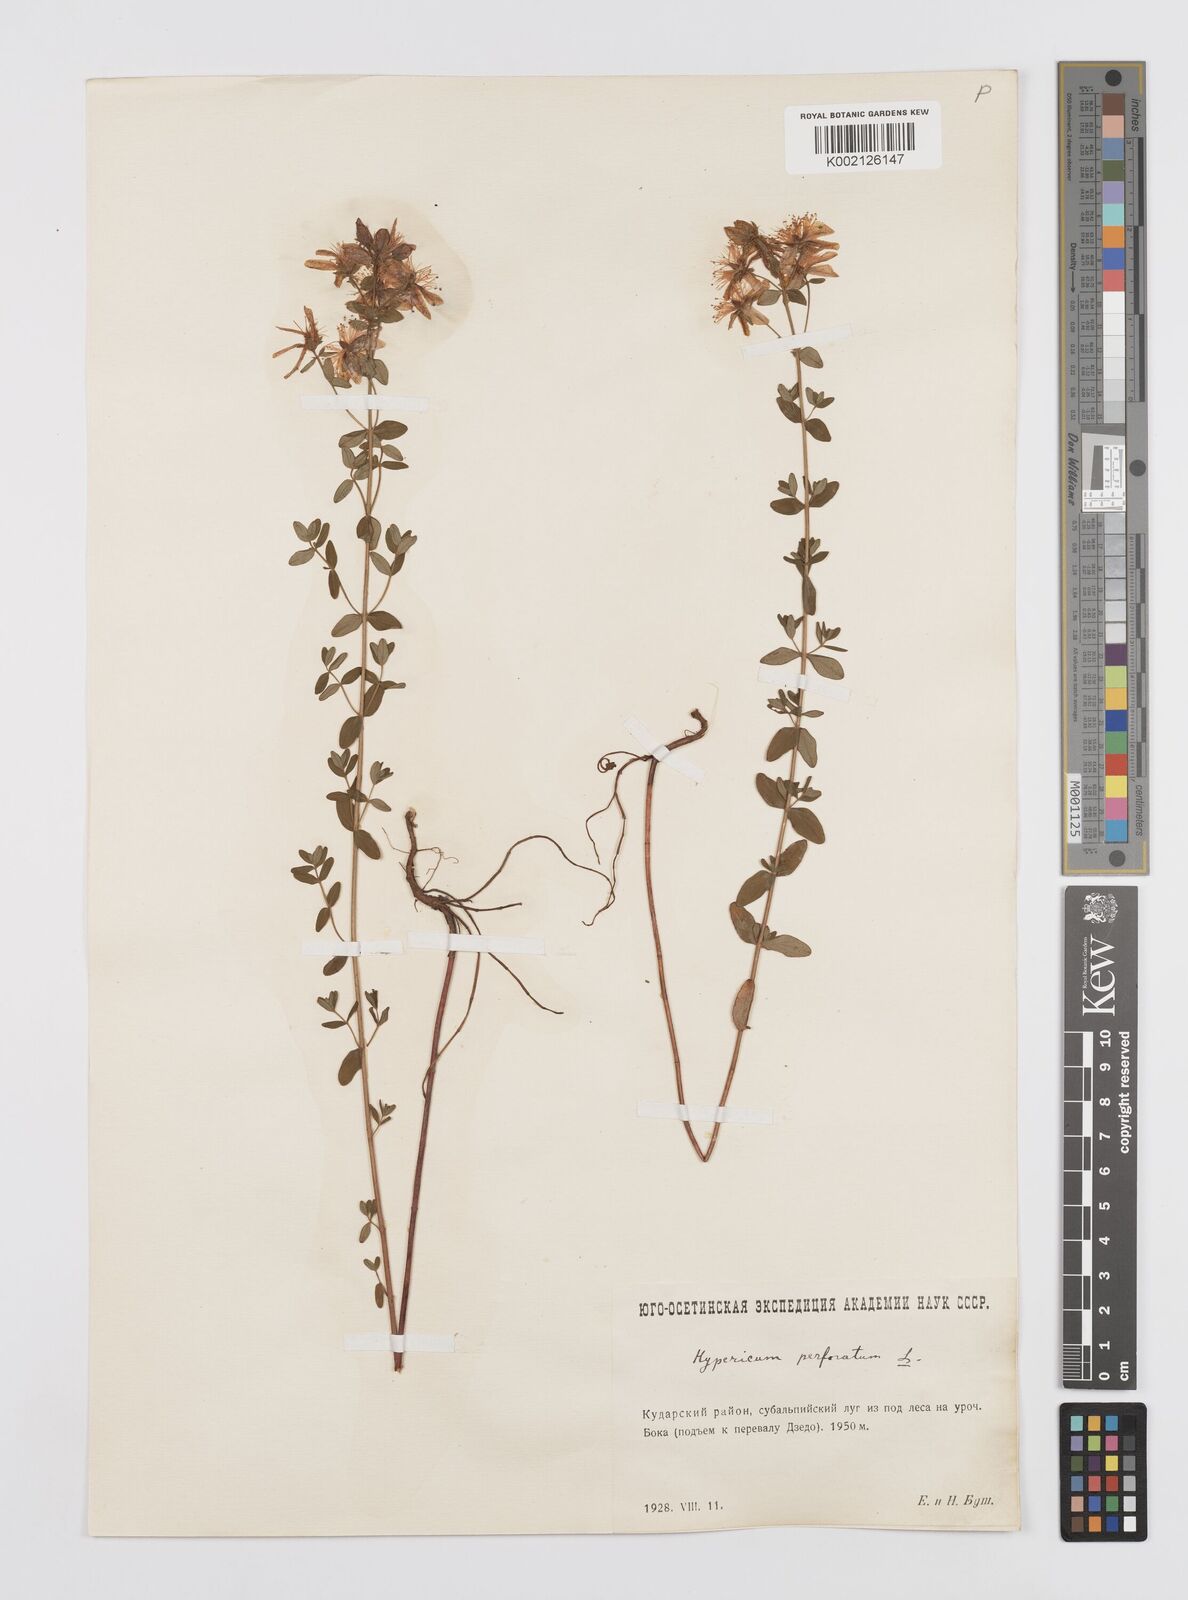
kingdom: Plantae
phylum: Tracheophyta
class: Magnoliopsida
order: Malpighiales
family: Hypericaceae
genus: Hypericum
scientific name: Hypericum perfoliatum
